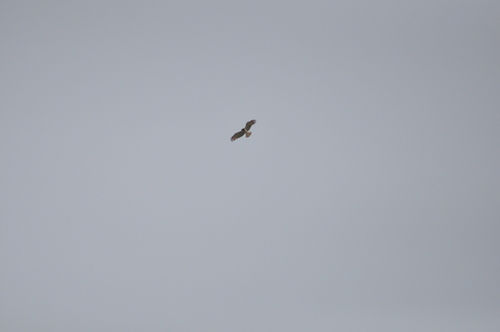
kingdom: Animalia
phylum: Chordata
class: Aves
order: Accipitriformes
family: Accipitridae
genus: Circaetus
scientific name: Circaetus gallicus
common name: Short-toed snake eagle
